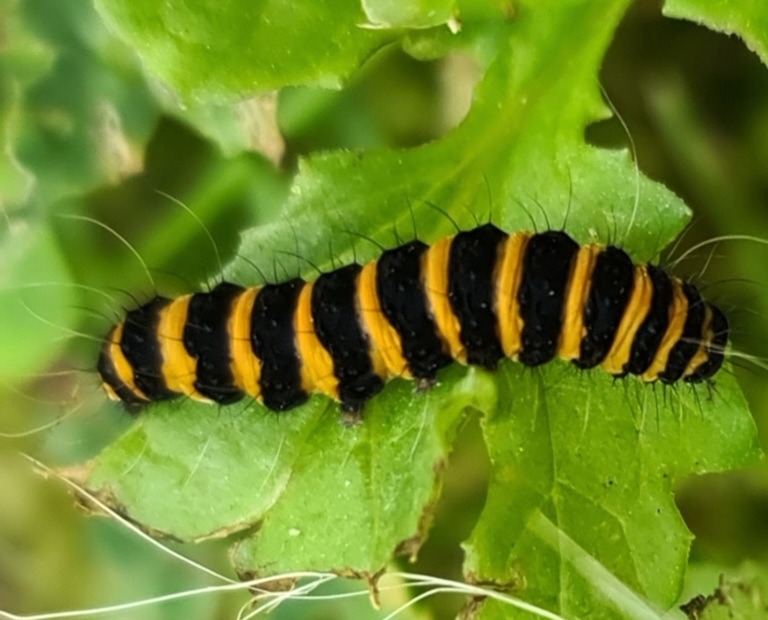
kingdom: Animalia
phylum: Arthropoda
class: Insecta
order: Lepidoptera
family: Erebidae
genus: Tyria
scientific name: Tyria jacobaeae
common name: Blodplet
